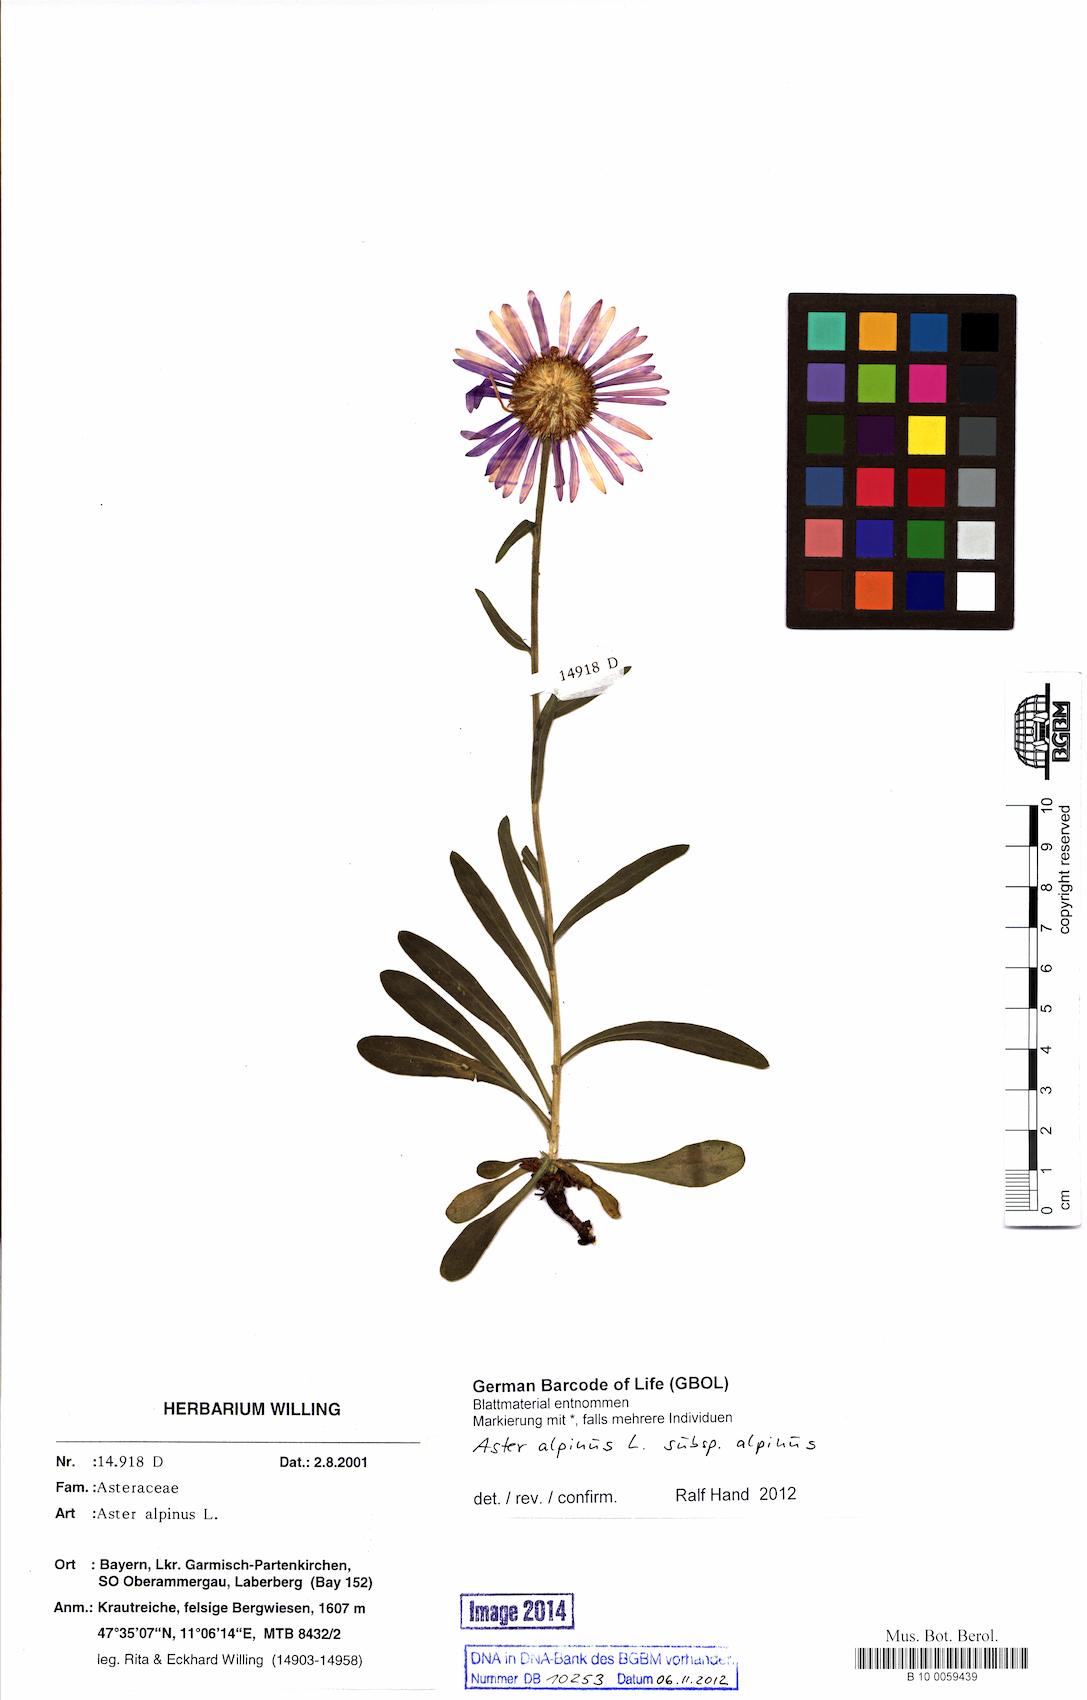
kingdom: Plantae
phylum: Tracheophyta
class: Magnoliopsida
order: Asterales
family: Asteraceae
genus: Aster
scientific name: Aster alpinus
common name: Alpine aster
